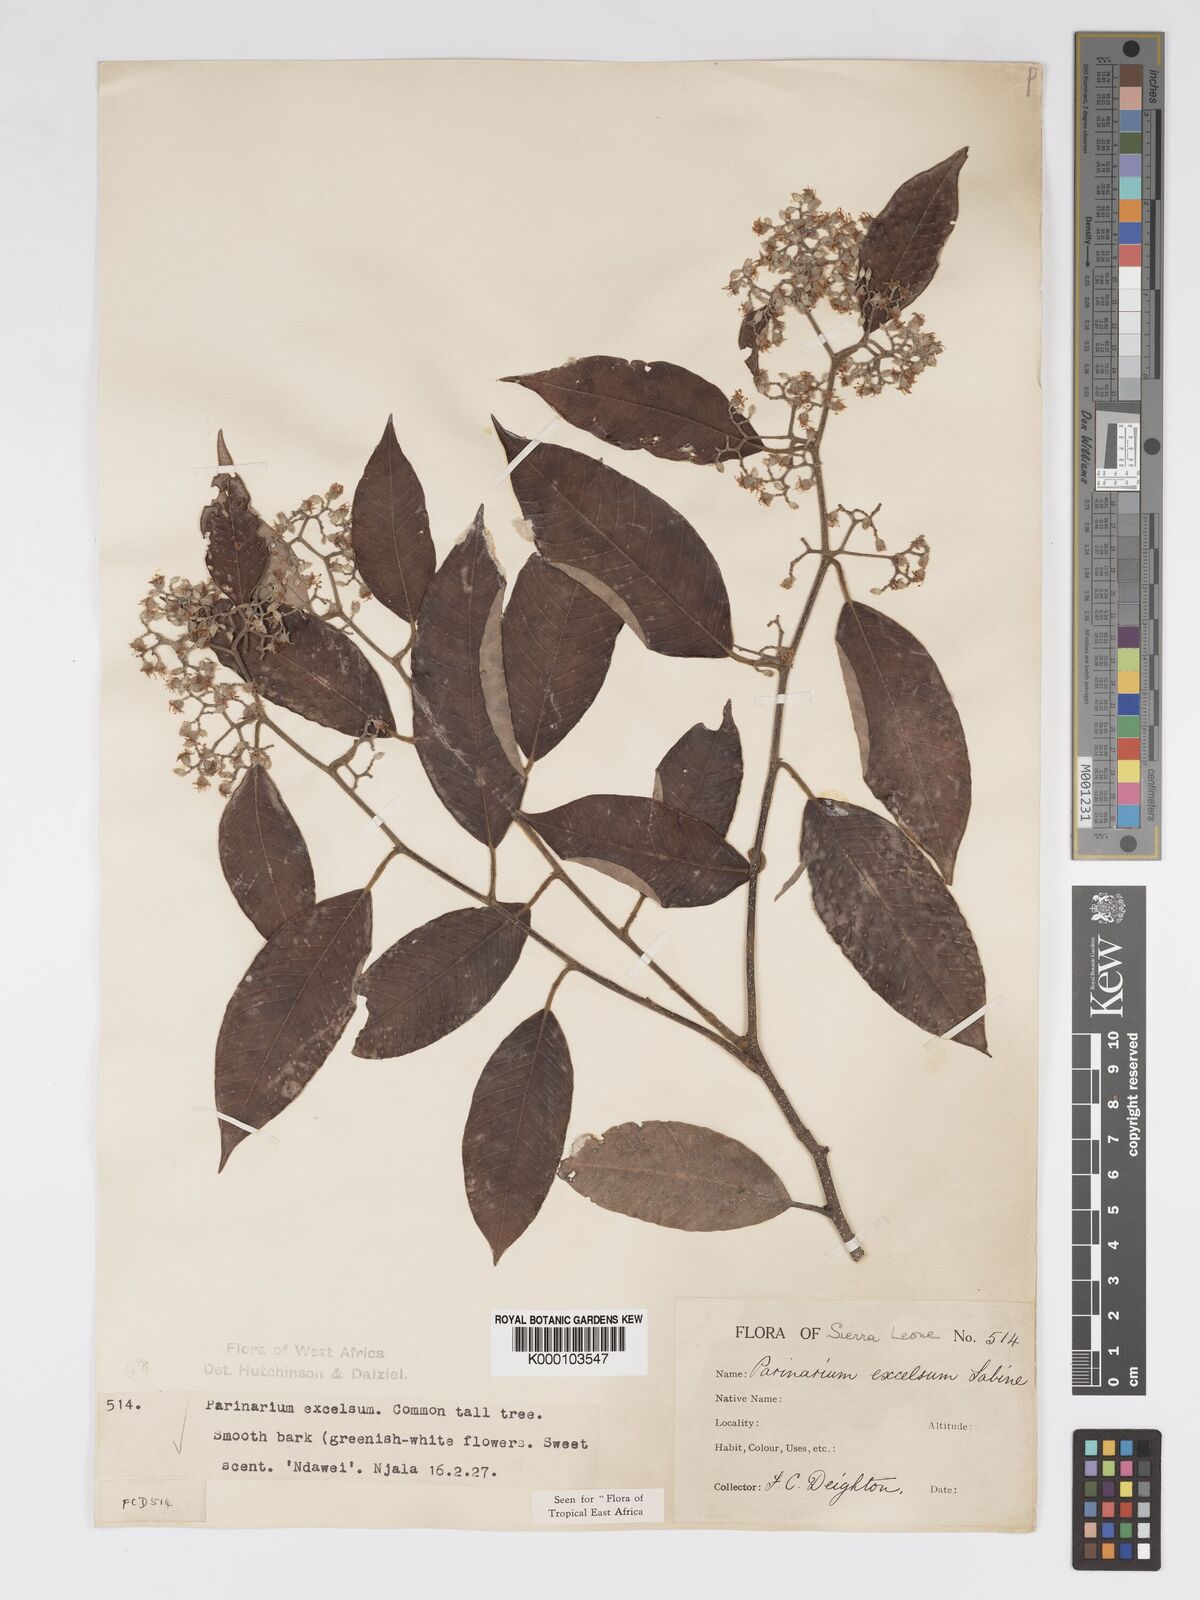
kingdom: Plantae
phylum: Tracheophyta
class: Magnoliopsida
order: Malpighiales
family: Chrysobalanaceae
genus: Parinari
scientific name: Parinari excelsa
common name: Guinea-plum
